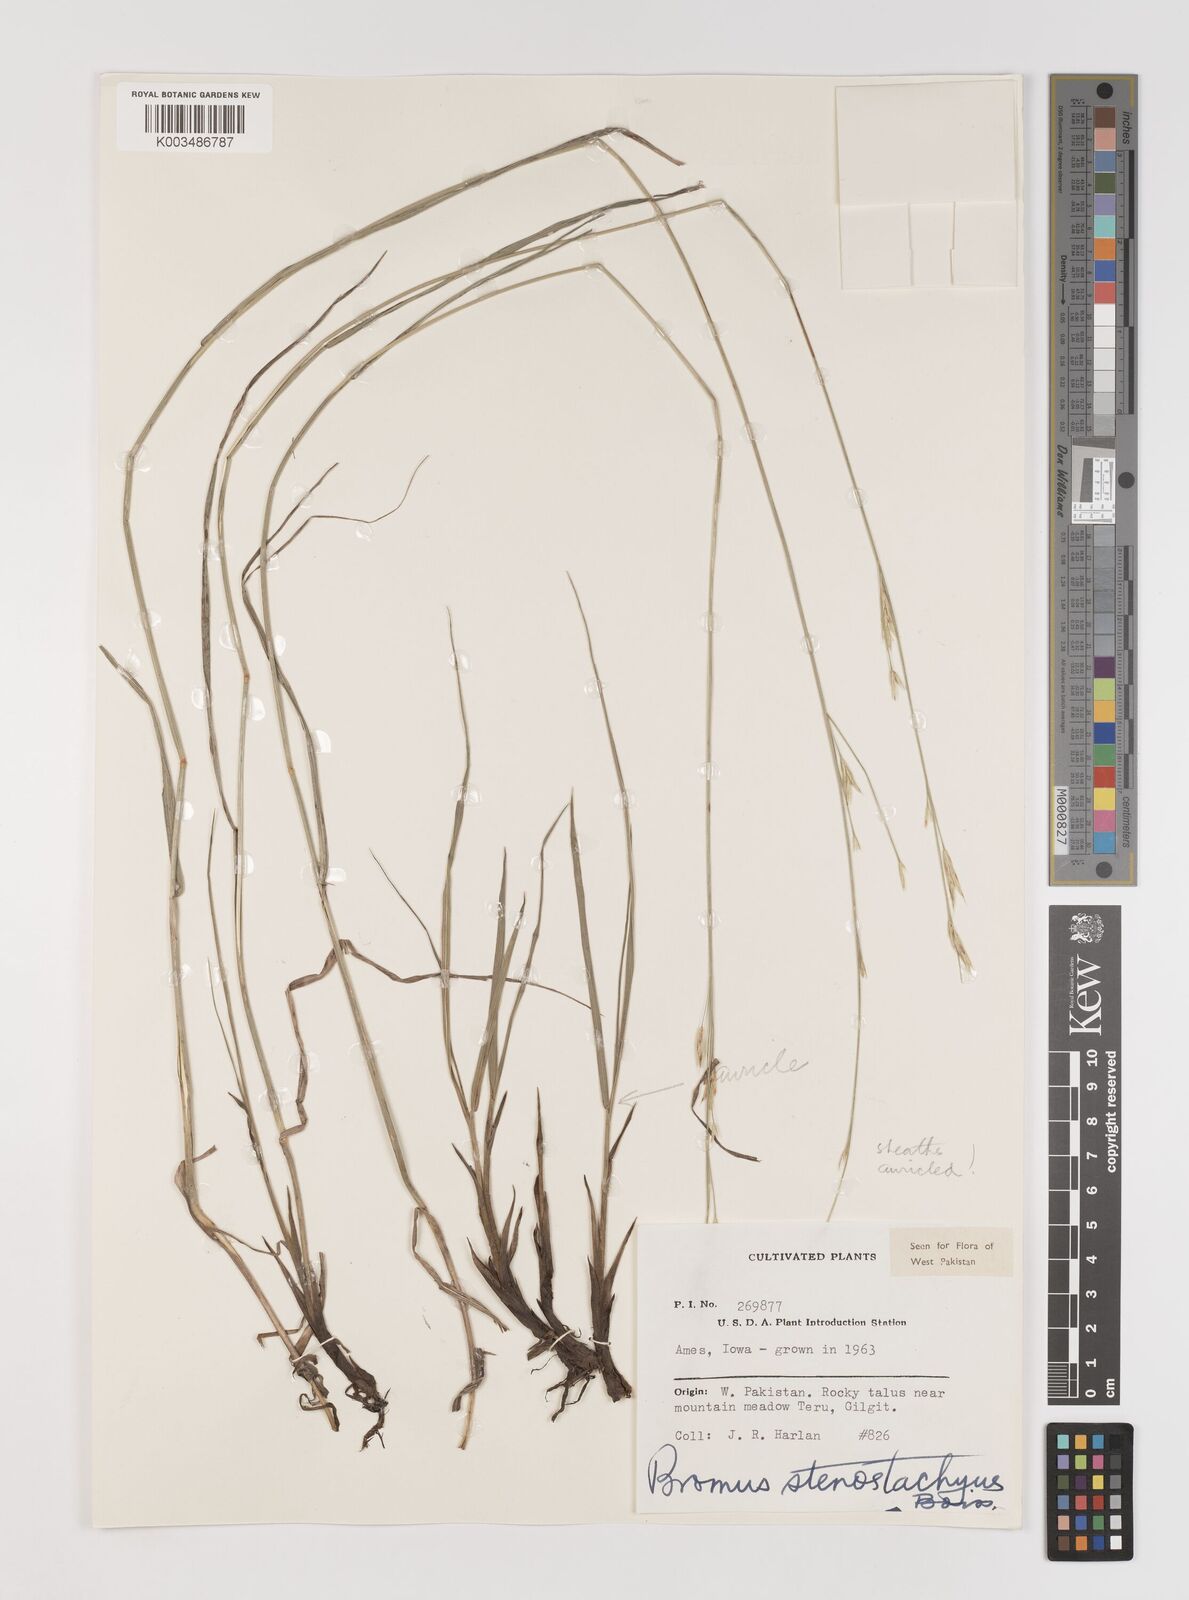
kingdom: Plantae
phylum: Tracheophyta
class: Liliopsida
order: Poales
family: Poaceae
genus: Bromus
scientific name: Bromus stenostachyus
